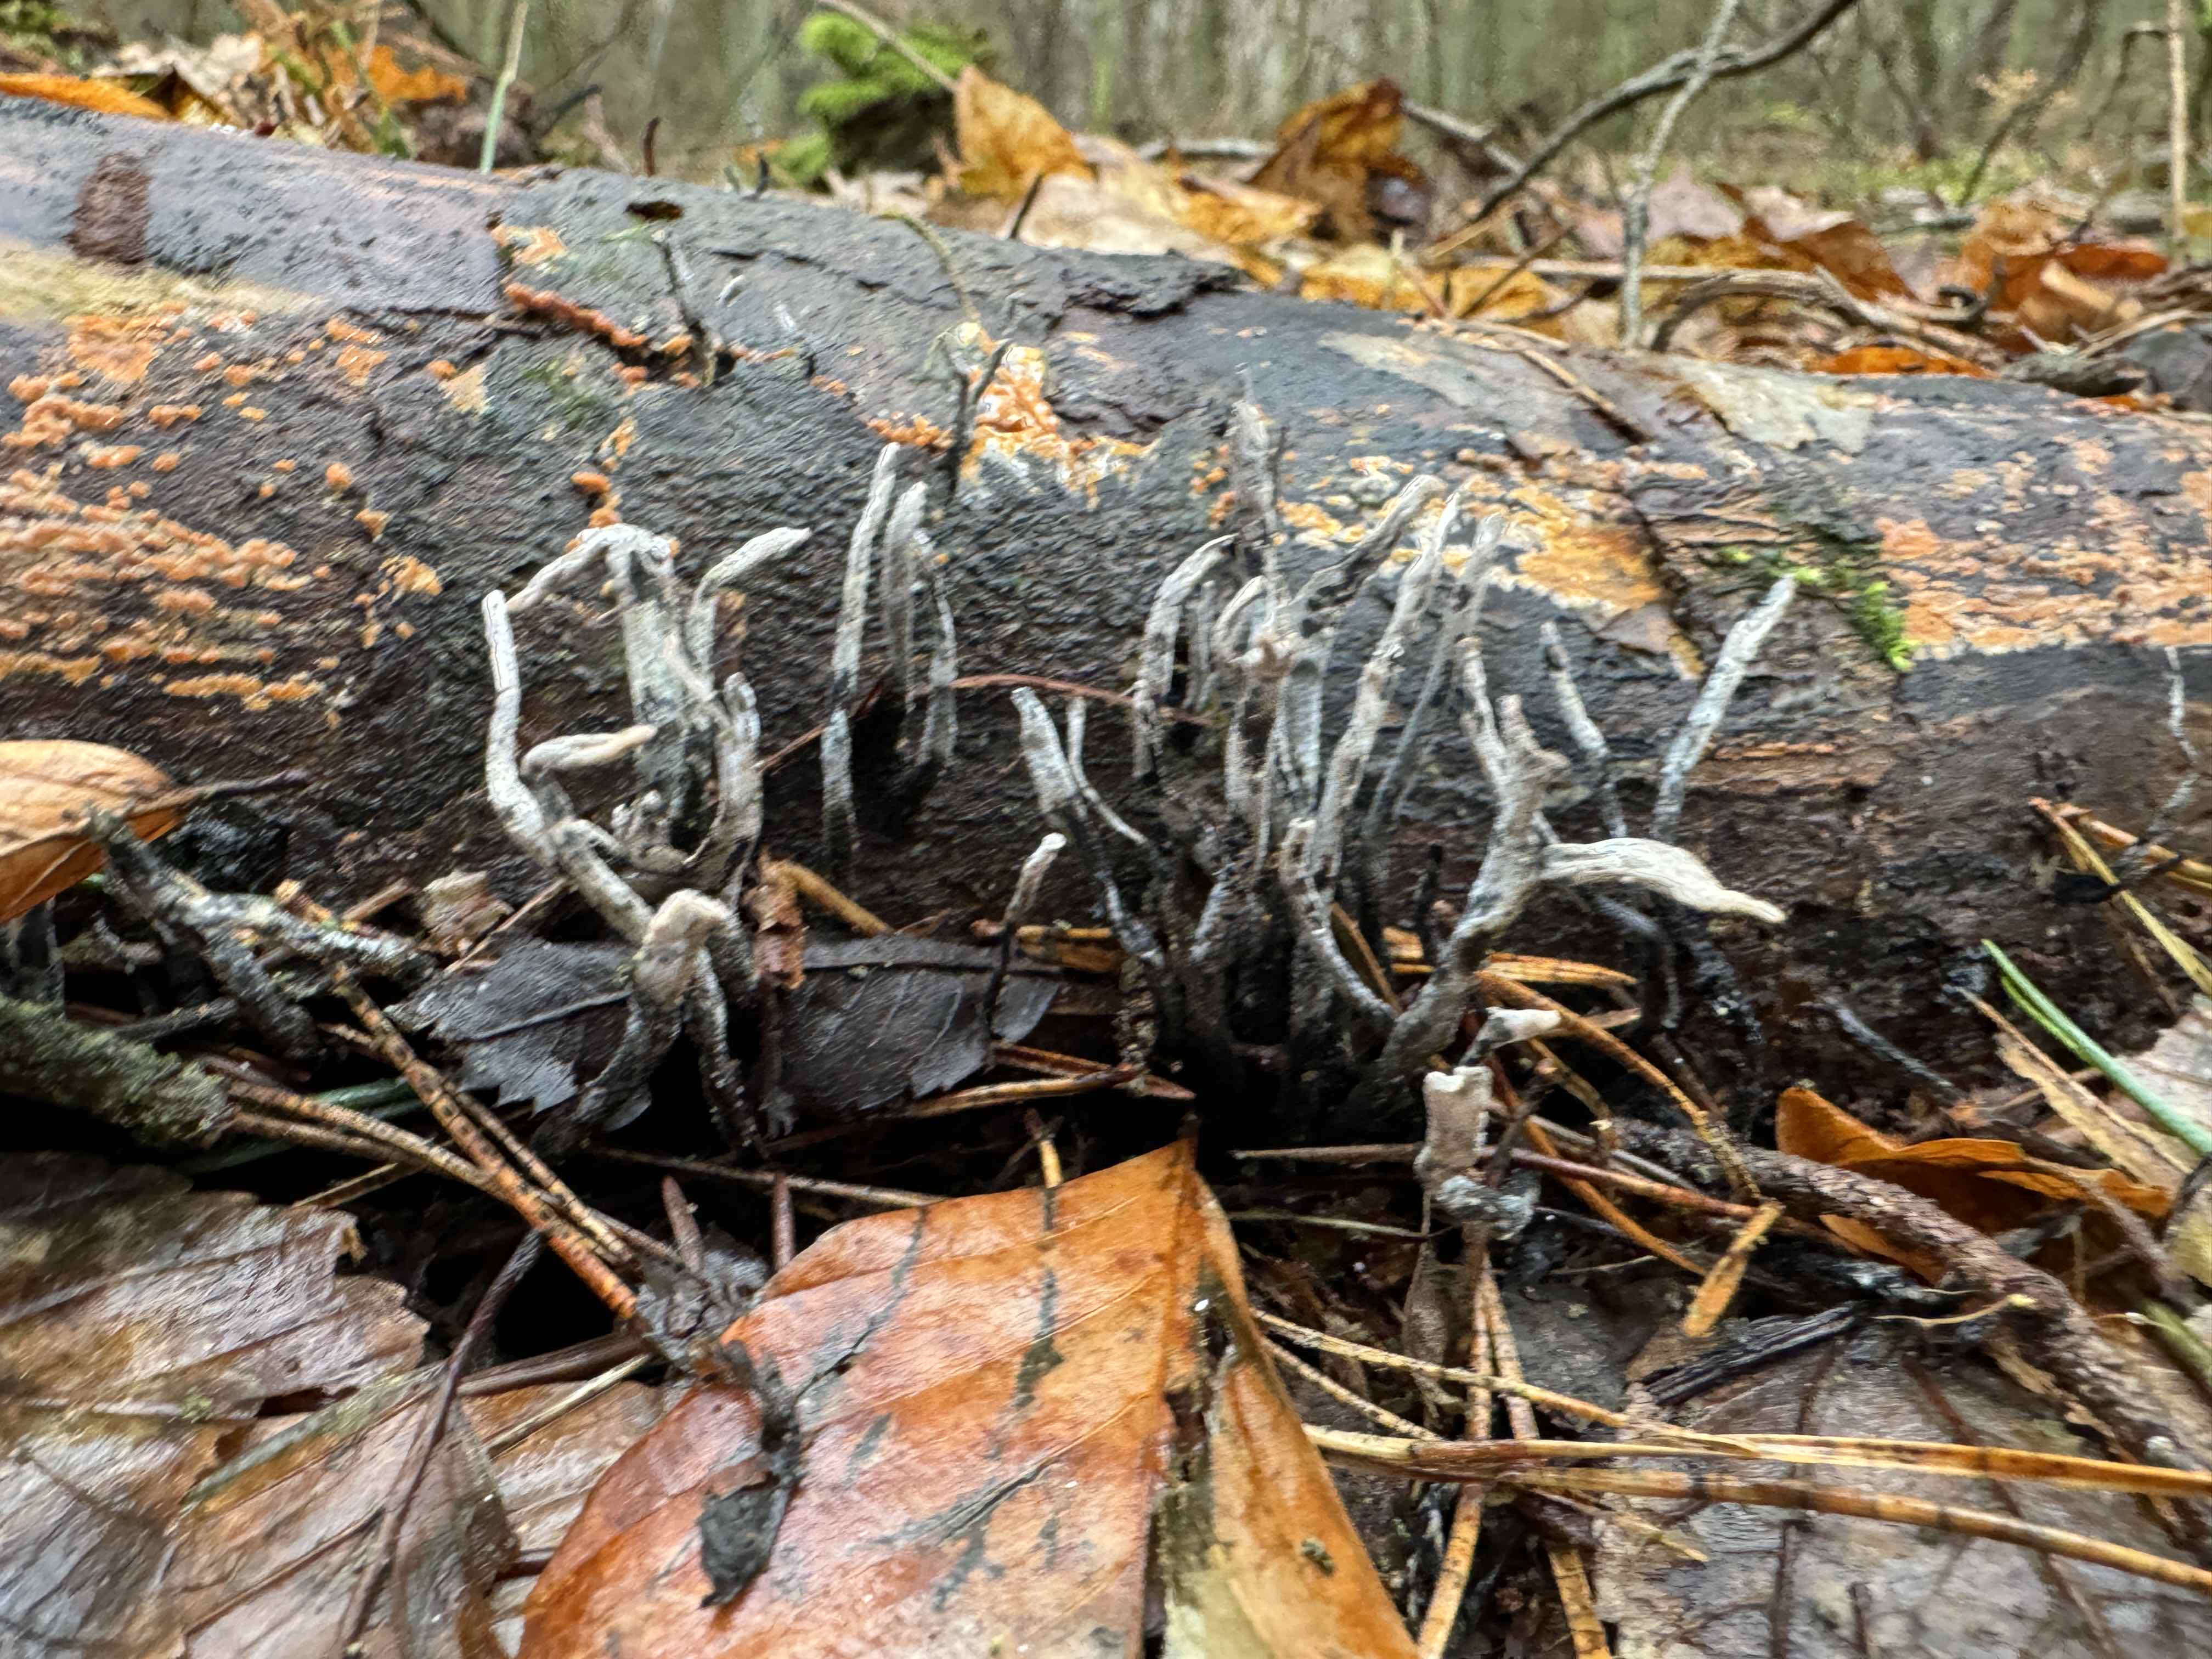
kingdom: Fungi
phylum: Ascomycota
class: Sordariomycetes
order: Xylariales
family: Xylariaceae
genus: Xylaria
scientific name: Xylaria hypoxylon
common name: grenet stødsvamp
